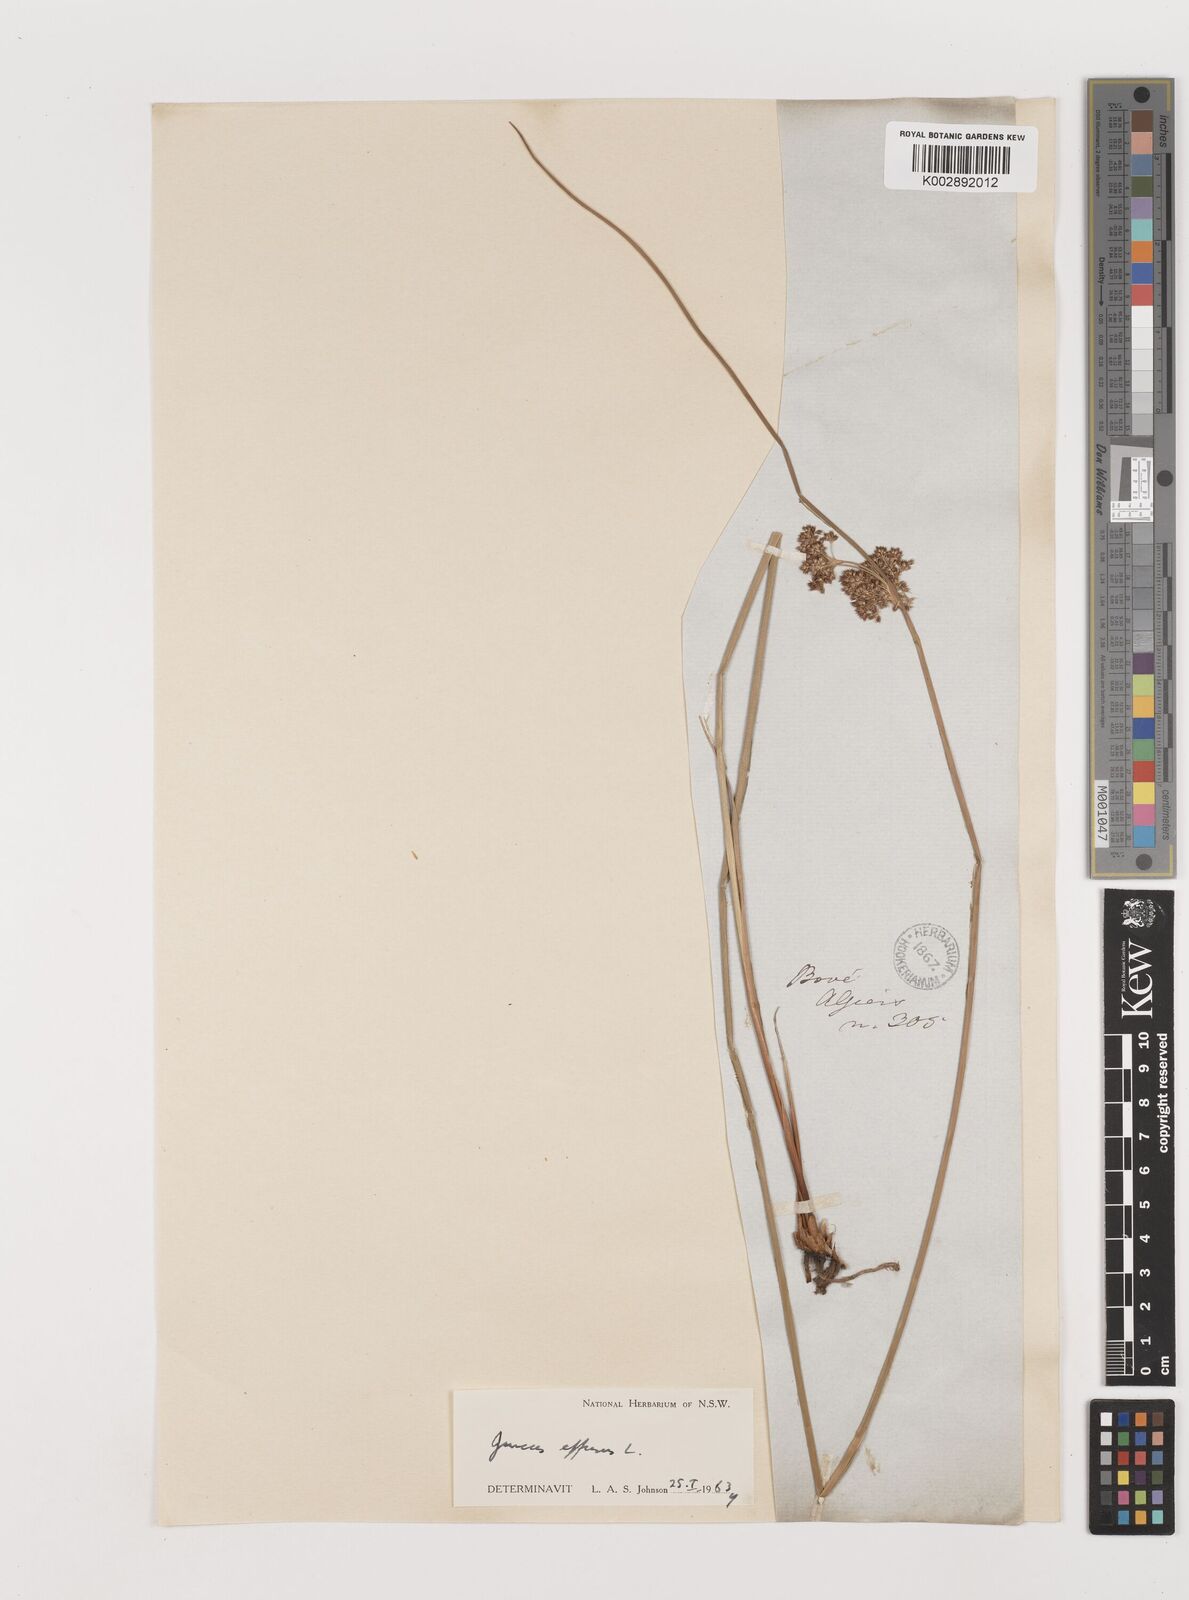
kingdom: Plantae
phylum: Tracheophyta
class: Liliopsida
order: Poales
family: Juncaceae
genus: Juncus
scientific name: Juncus effusus
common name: Soft rush
